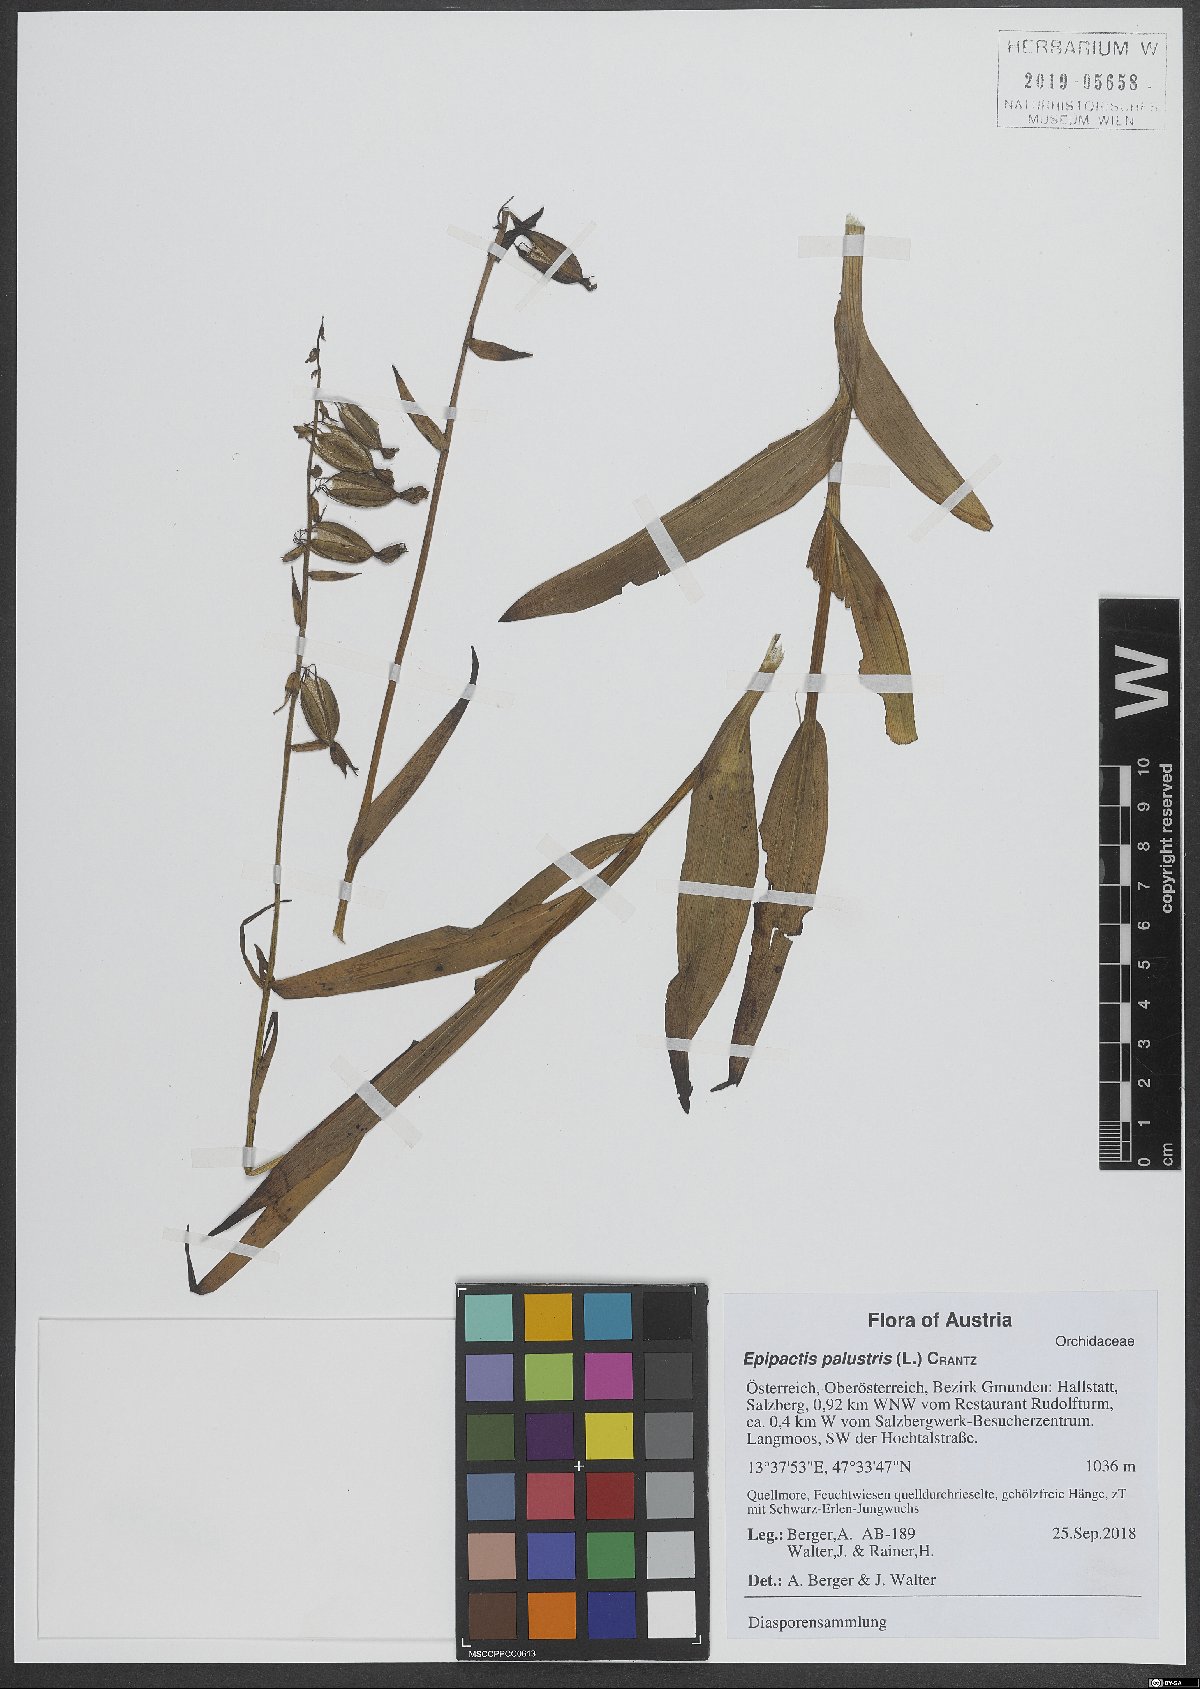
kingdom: Plantae
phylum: Tracheophyta
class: Liliopsida
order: Asparagales
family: Orchidaceae
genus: Epipactis
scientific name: Epipactis palustris
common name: Marsh helleborine
